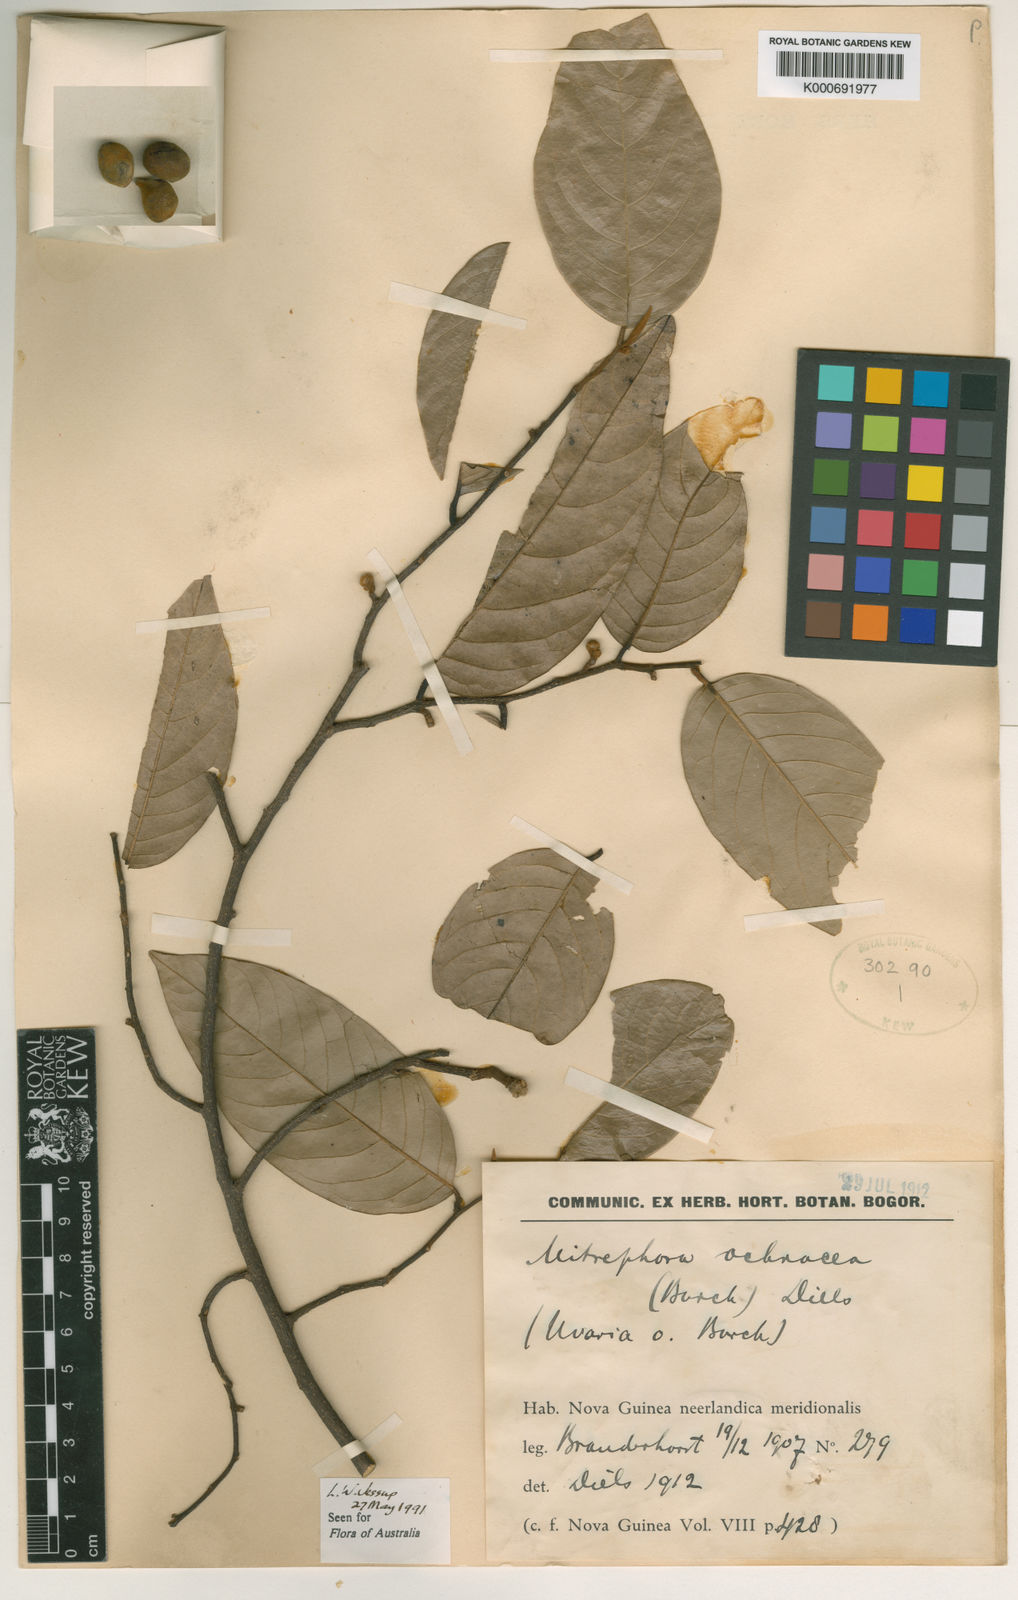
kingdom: Plantae
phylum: Tracheophyta
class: Magnoliopsida
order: Magnoliales
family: Annonaceae
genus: Mitrephora
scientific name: Mitrephora diversifolia
